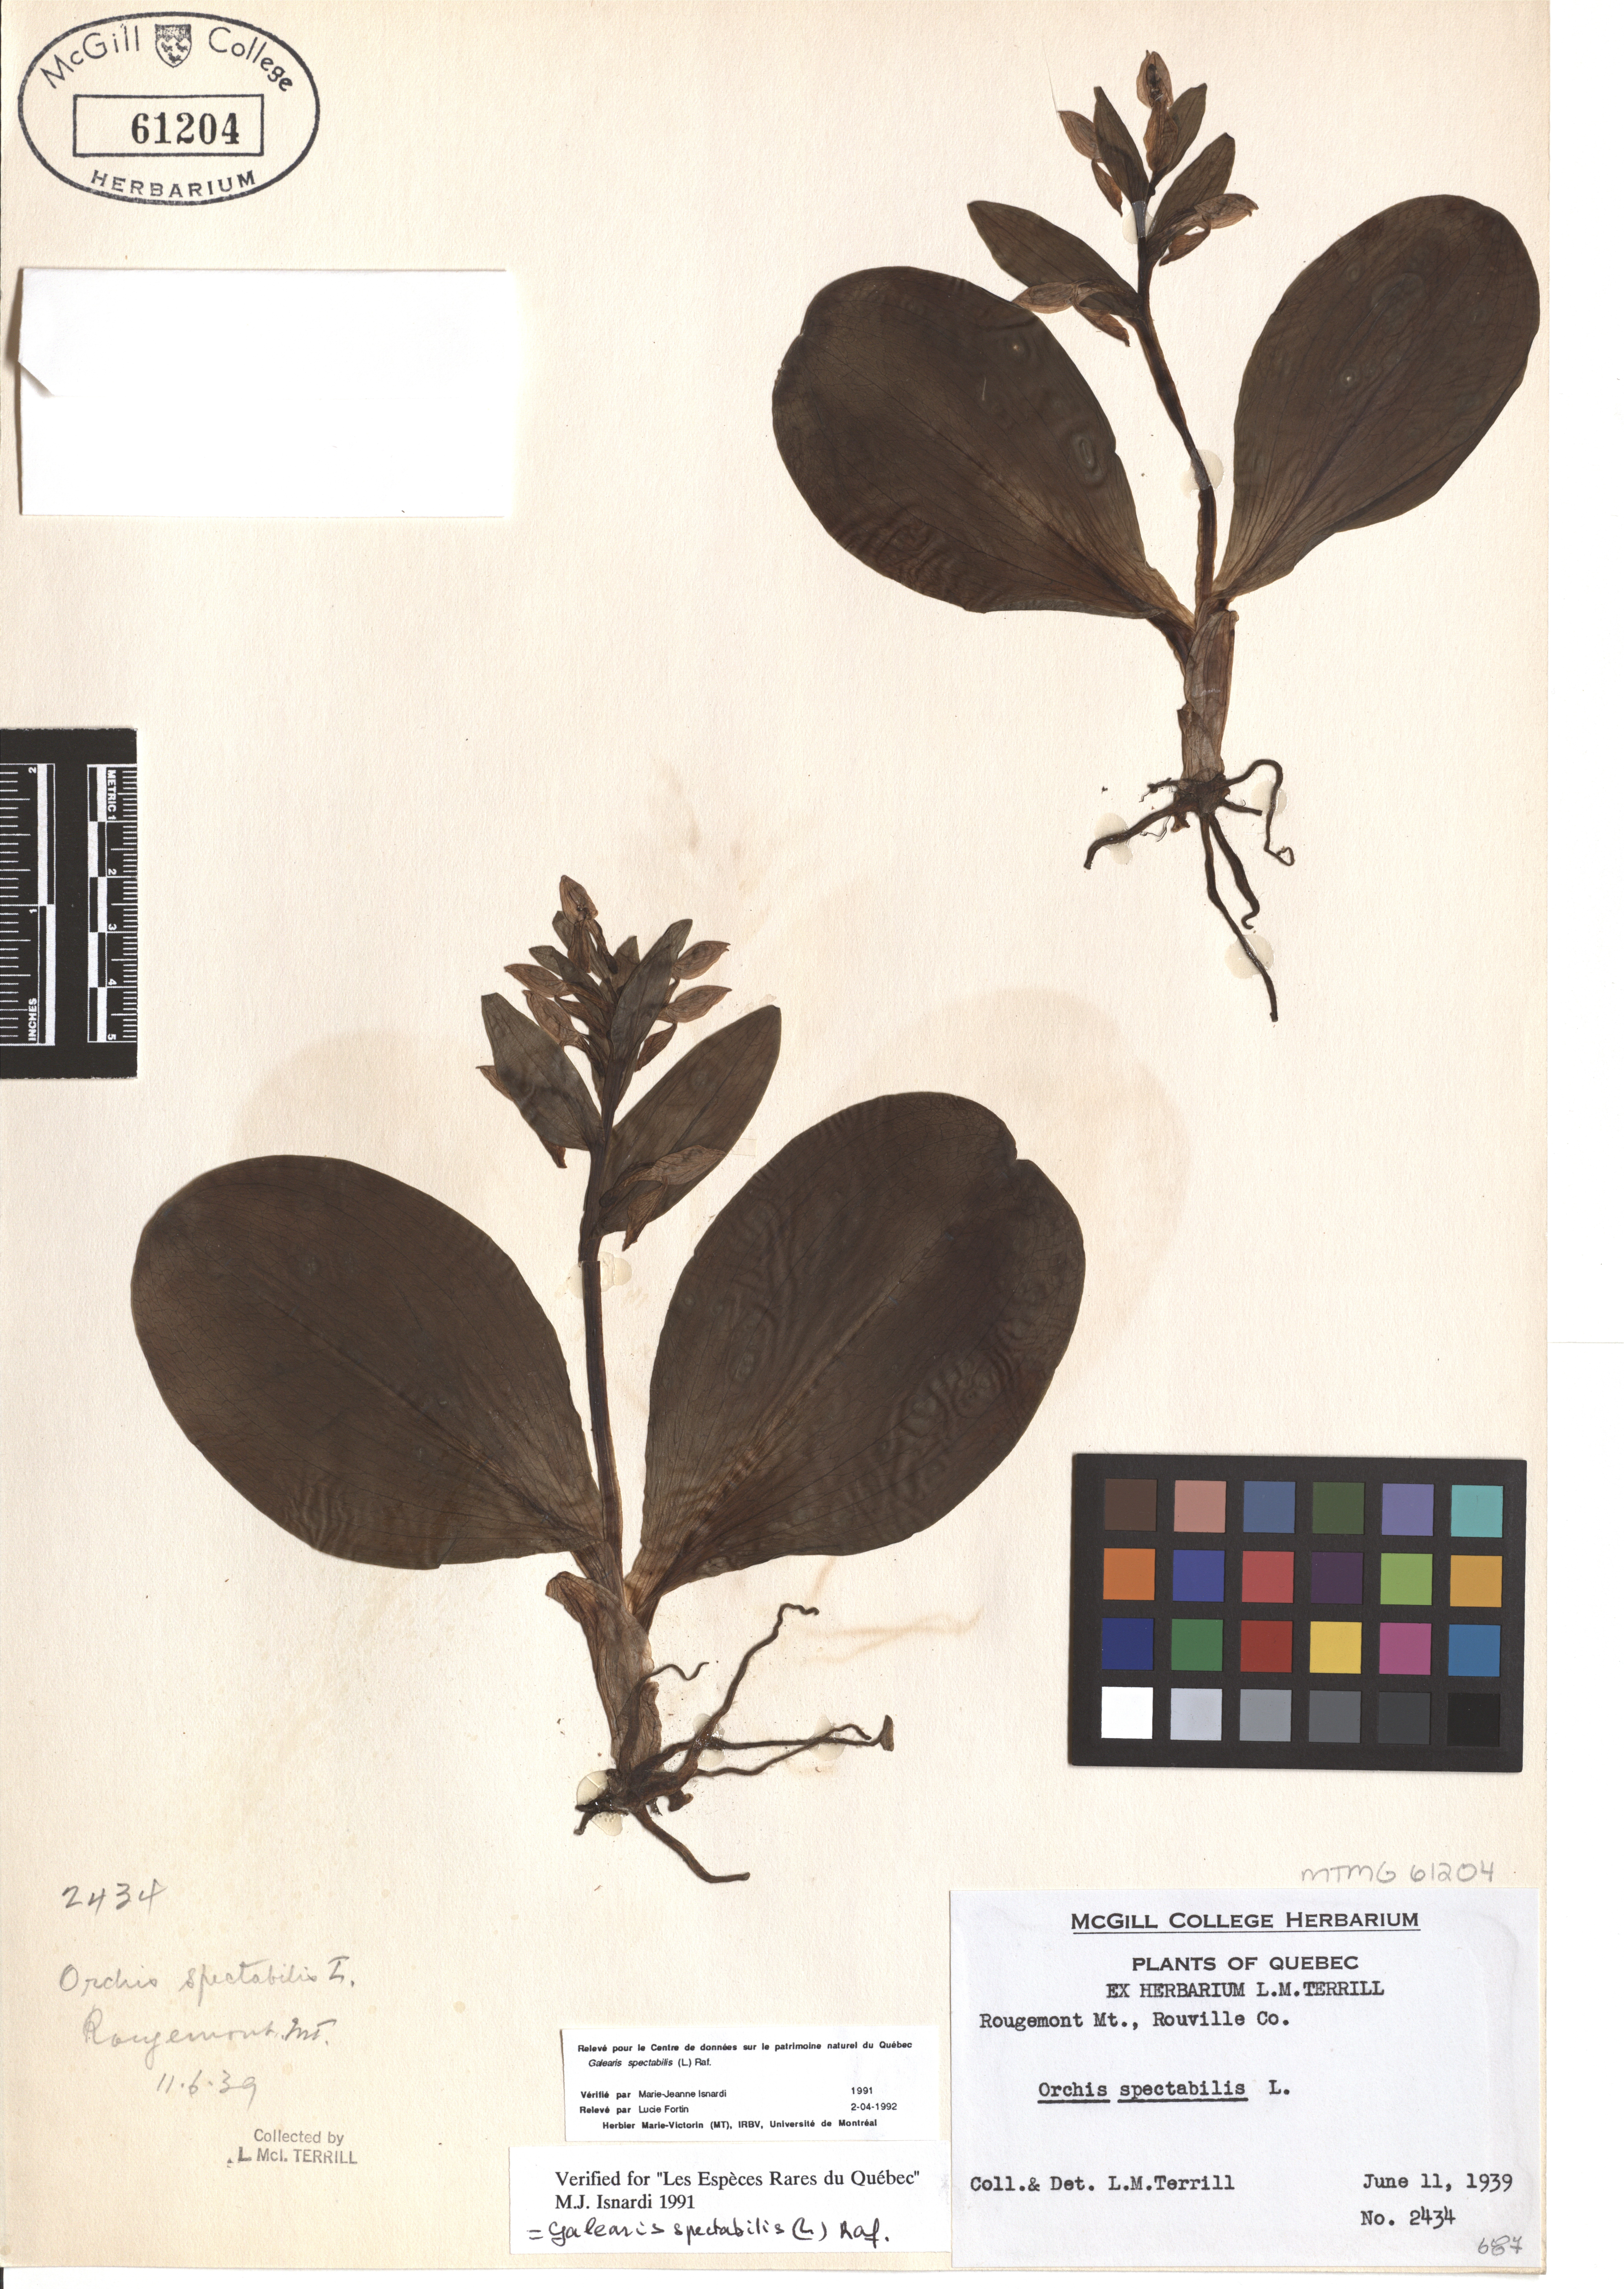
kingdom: Plantae
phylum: Tracheophyta
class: Liliopsida
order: Asparagales
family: Orchidaceae
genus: Galearis
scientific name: Galearis spectabilis
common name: Purple-hooded orchis
